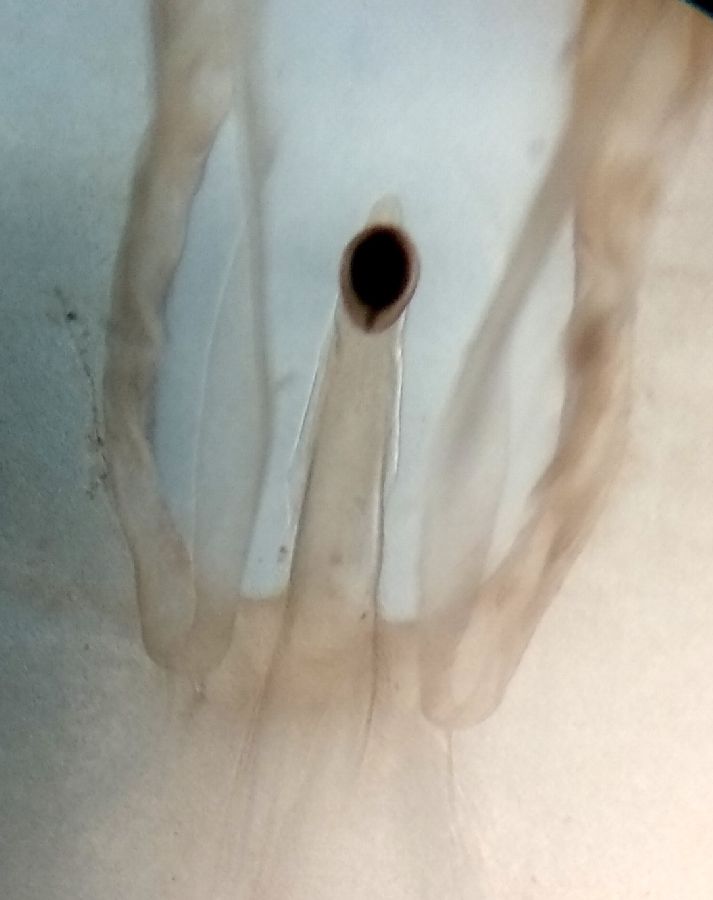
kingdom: Animalia
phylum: Cnidaria
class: Scyphozoa
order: Semaeostomeae
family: Cyaneidae
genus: Cyanea
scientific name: Cyanea capillata
